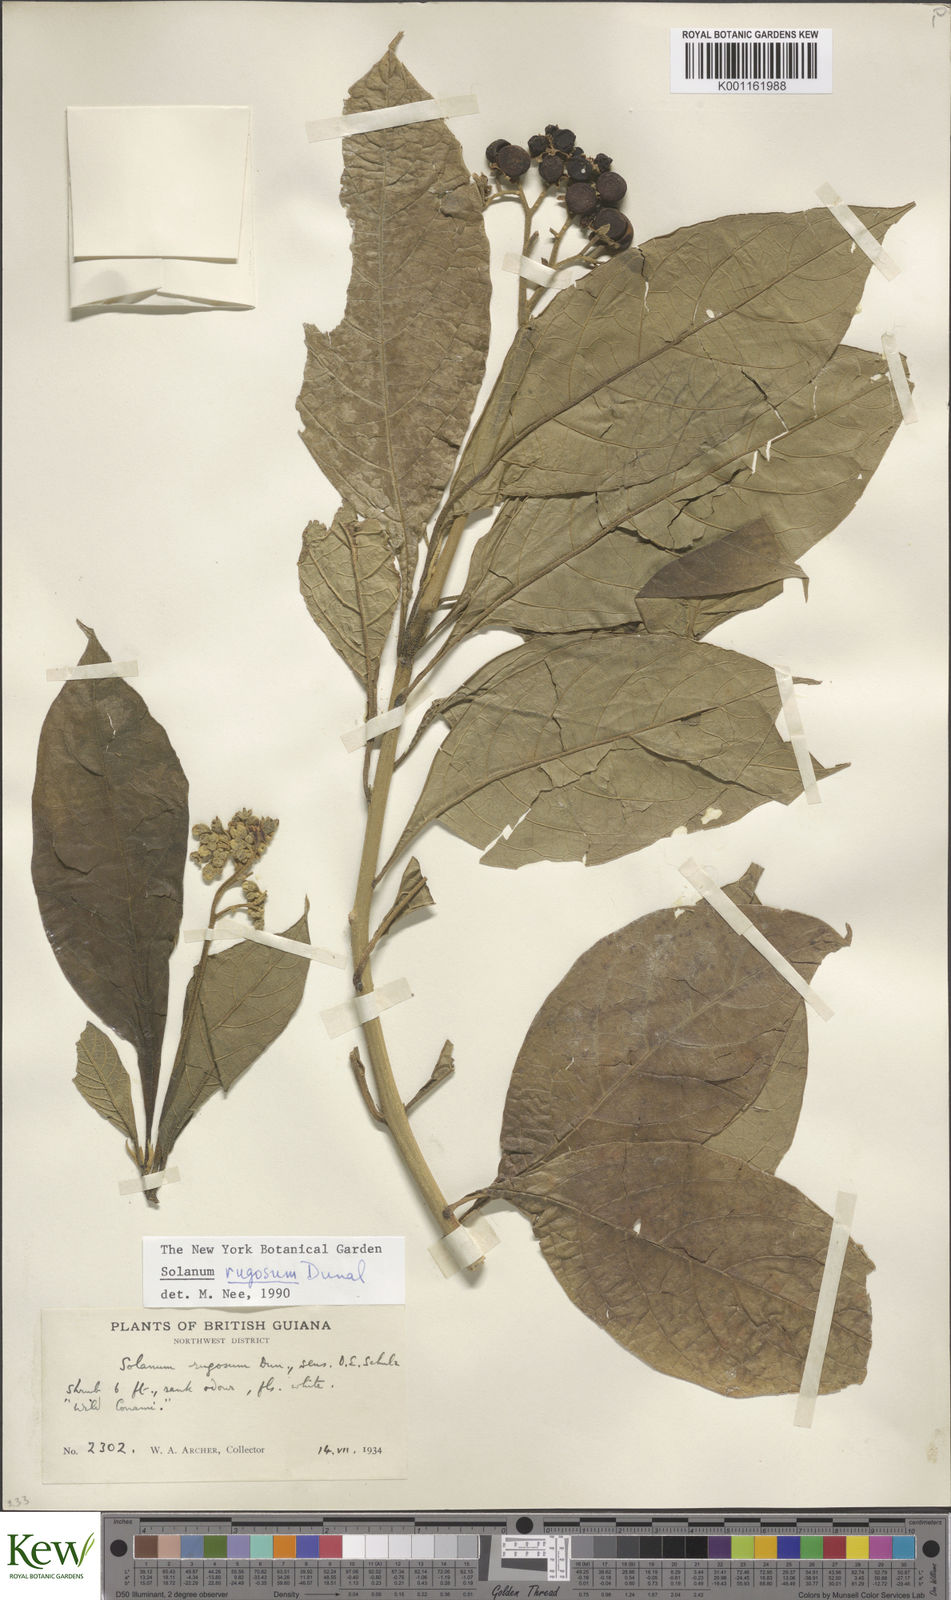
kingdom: Plantae
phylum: Tracheophyta
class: Magnoliopsida
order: Solanales
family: Solanaceae
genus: Solanum
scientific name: Solanum rugosum
